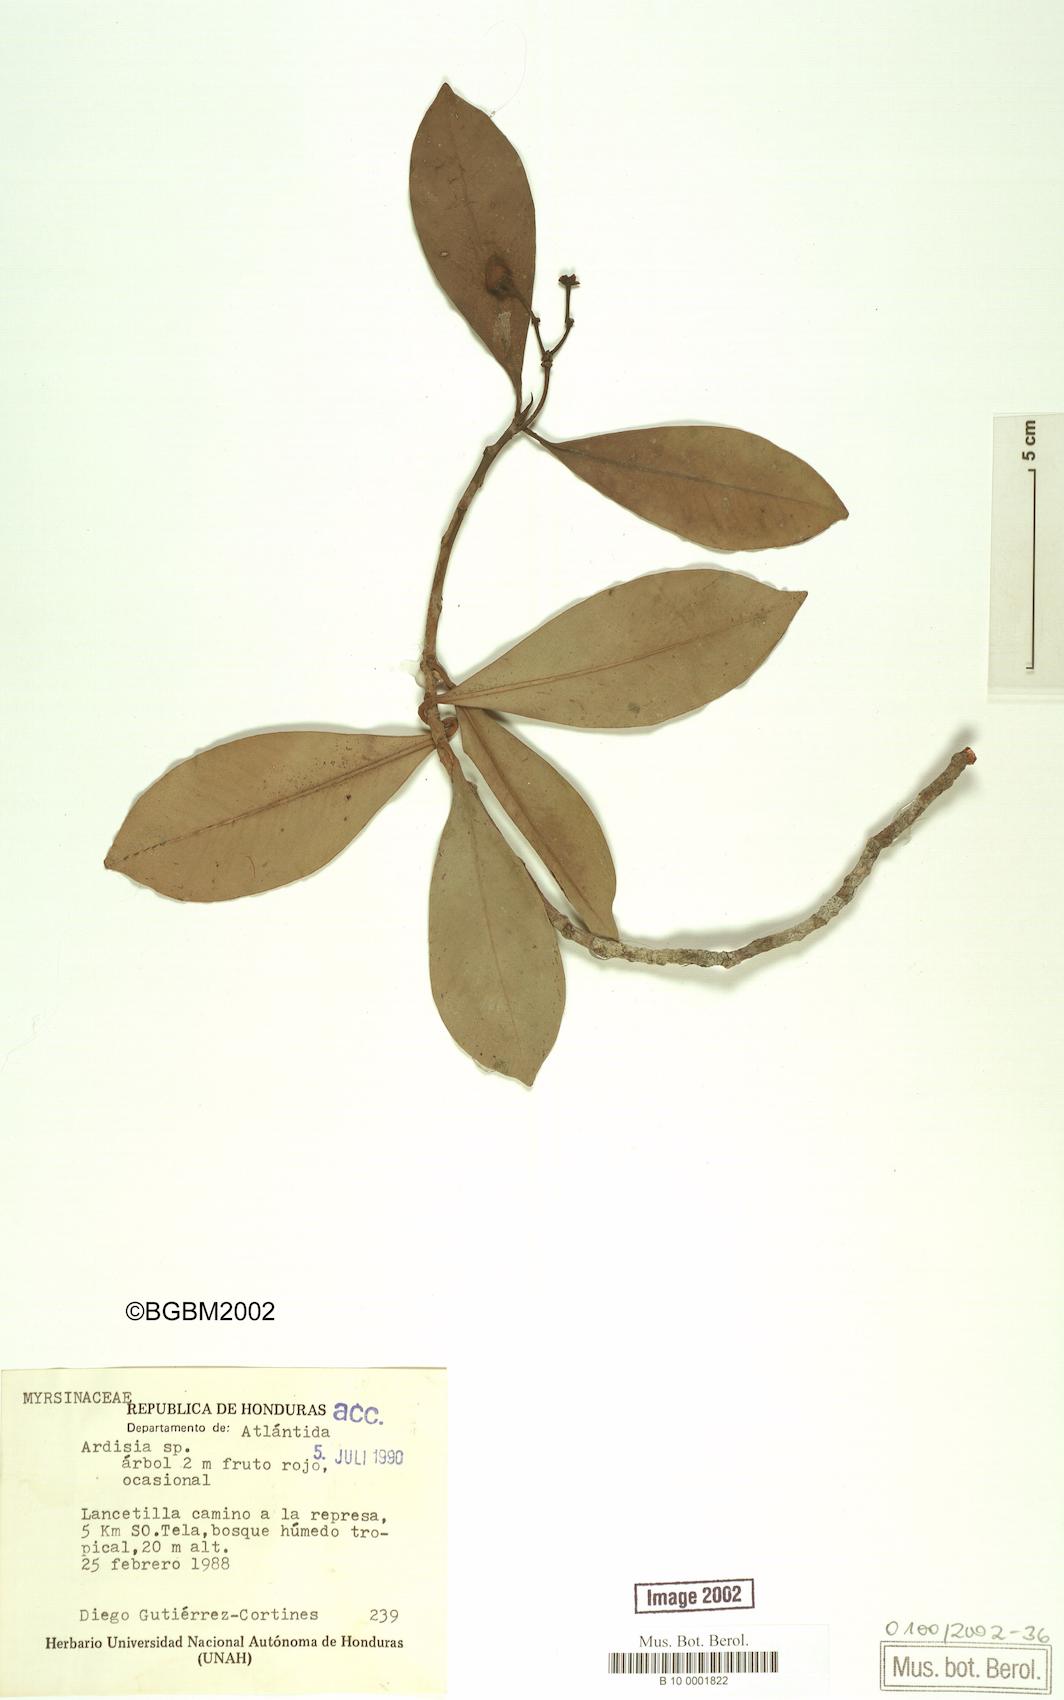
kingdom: Plantae
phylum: Tracheophyta
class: Magnoliopsida
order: Ericales
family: Primulaceae
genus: Ardisia
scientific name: Ardisia
